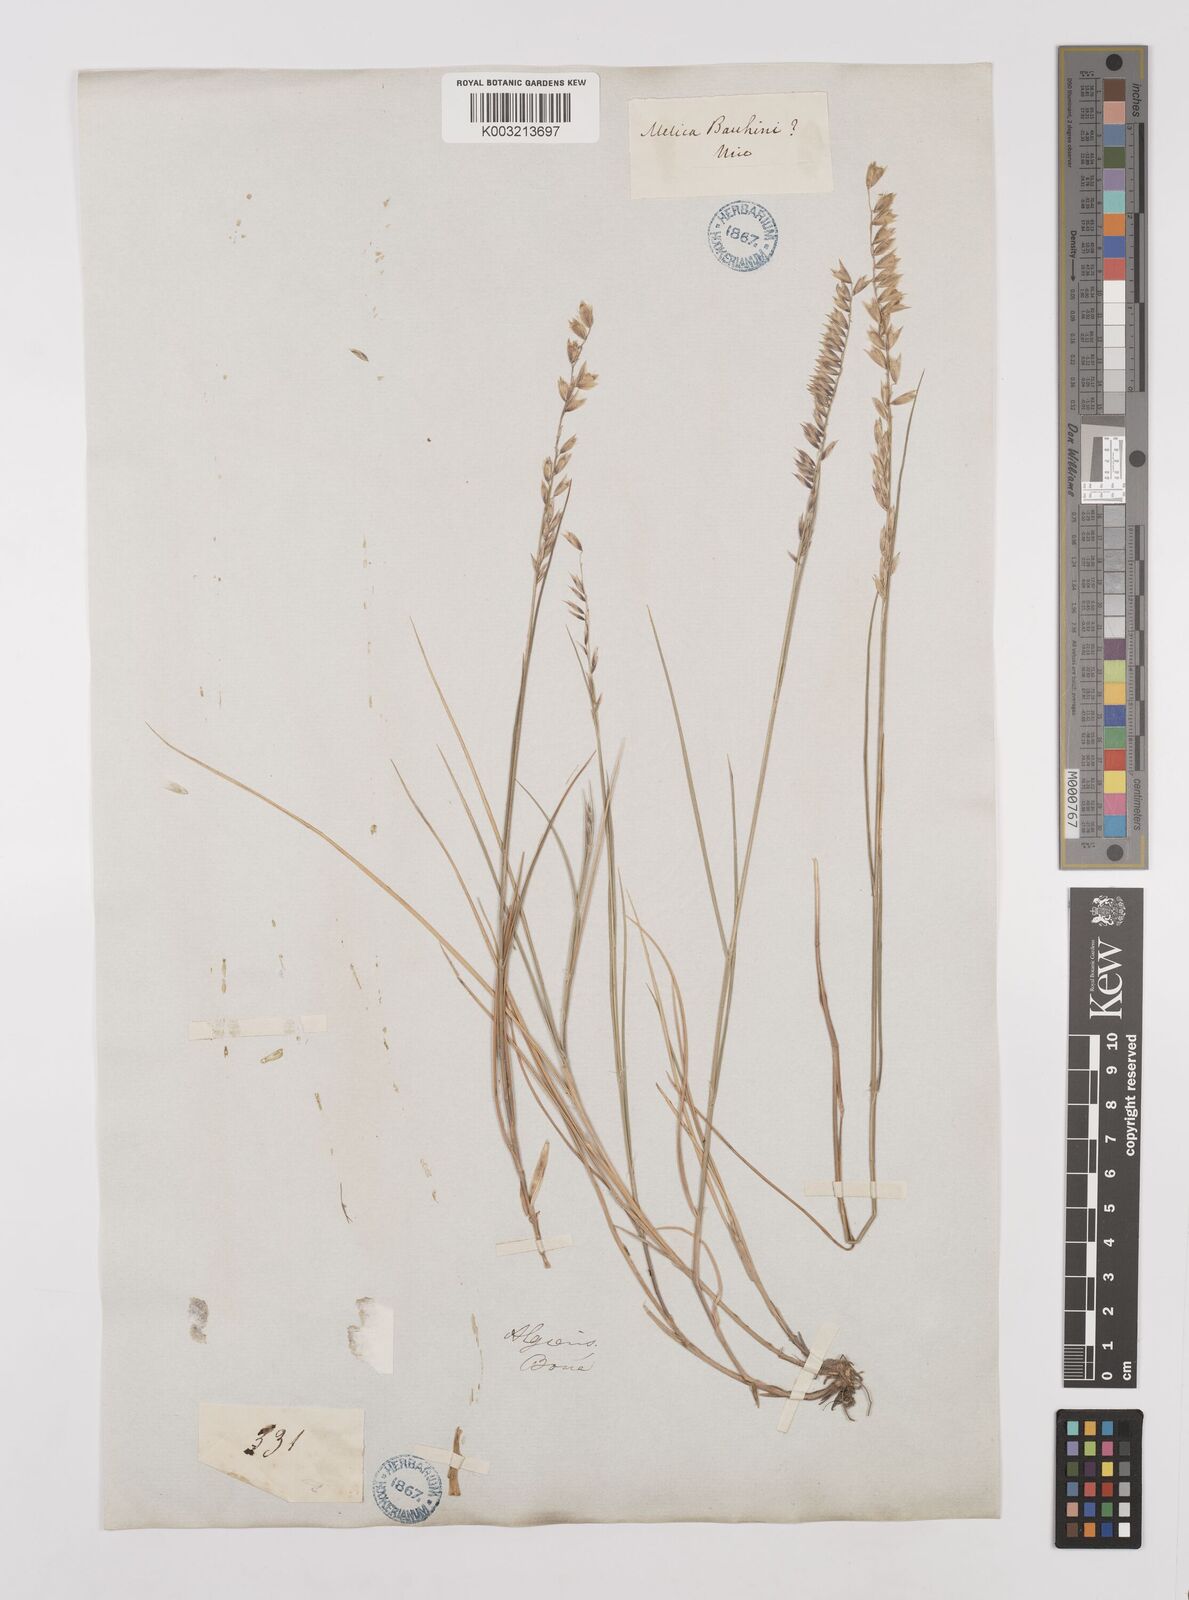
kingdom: Plantae
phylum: Tracheophyta
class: Liliopsida
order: Poales
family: Poaceae
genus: Melica
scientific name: Melica ciliata
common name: Hairy melicgrass
